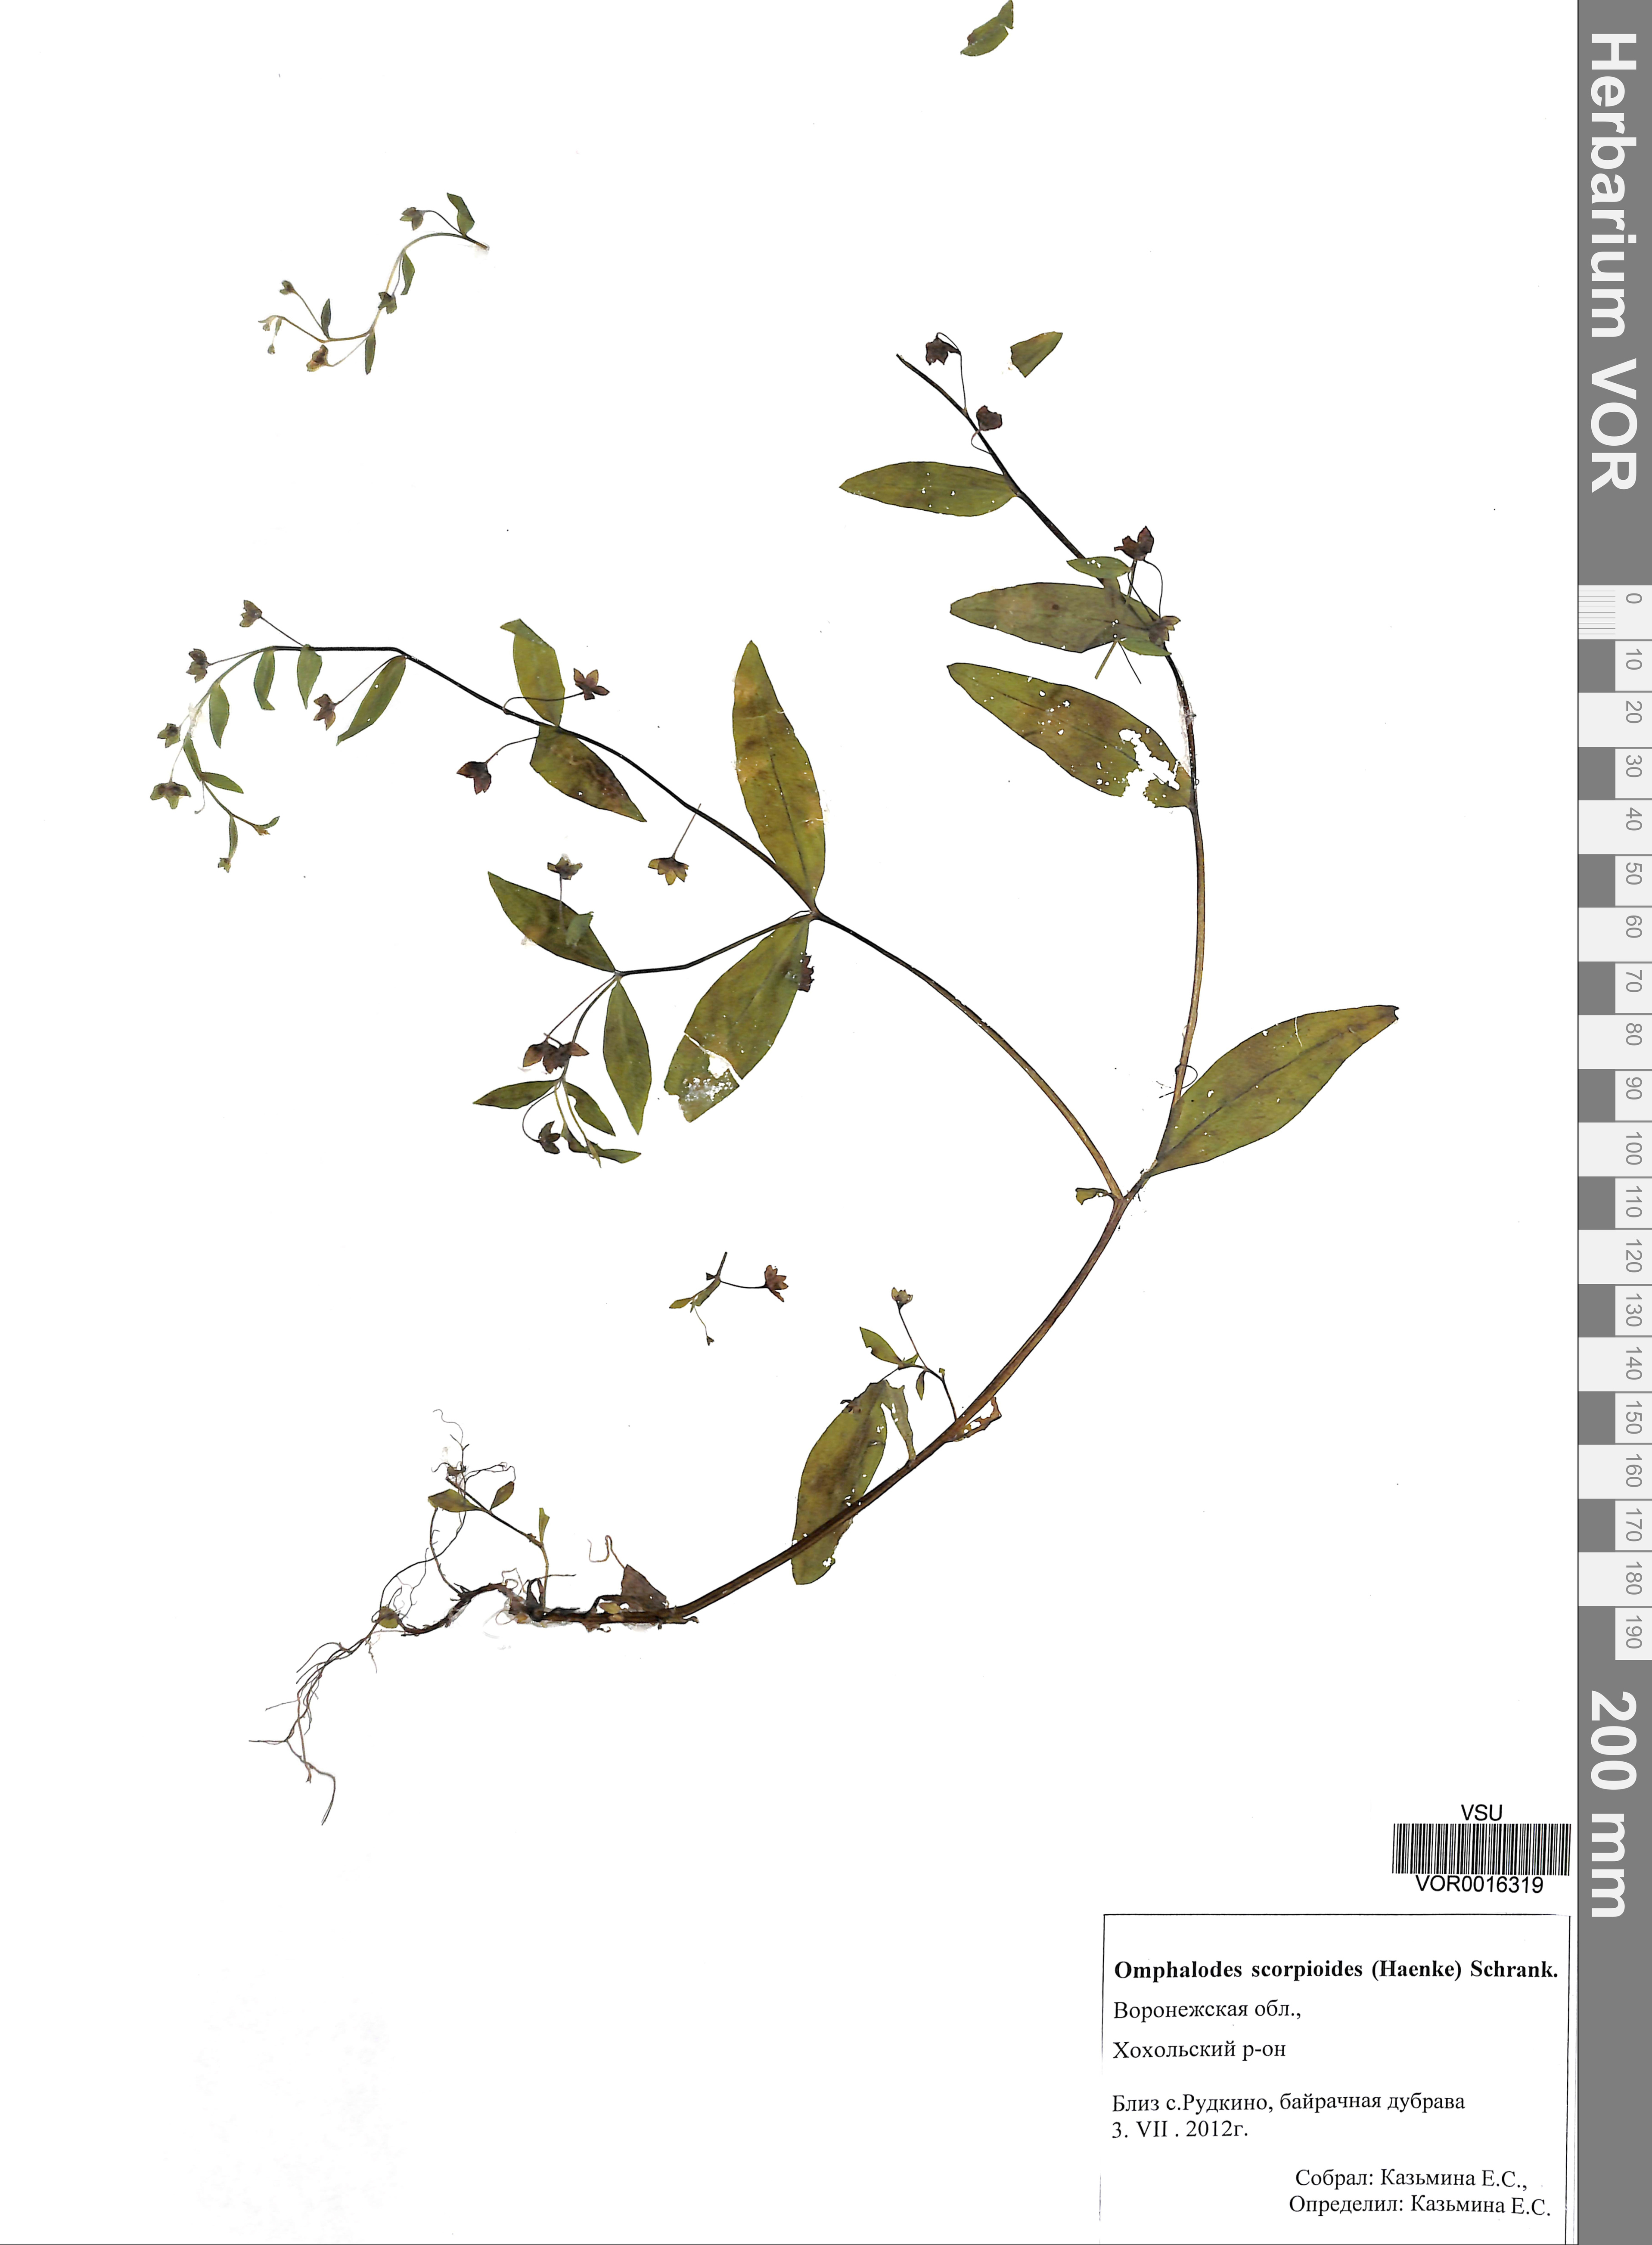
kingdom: Plantae
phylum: Tracheophyta
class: Magnoliopsida
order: Boraginales
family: Boraginaceae
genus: Memoremea
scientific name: Memoremea scorpioides
